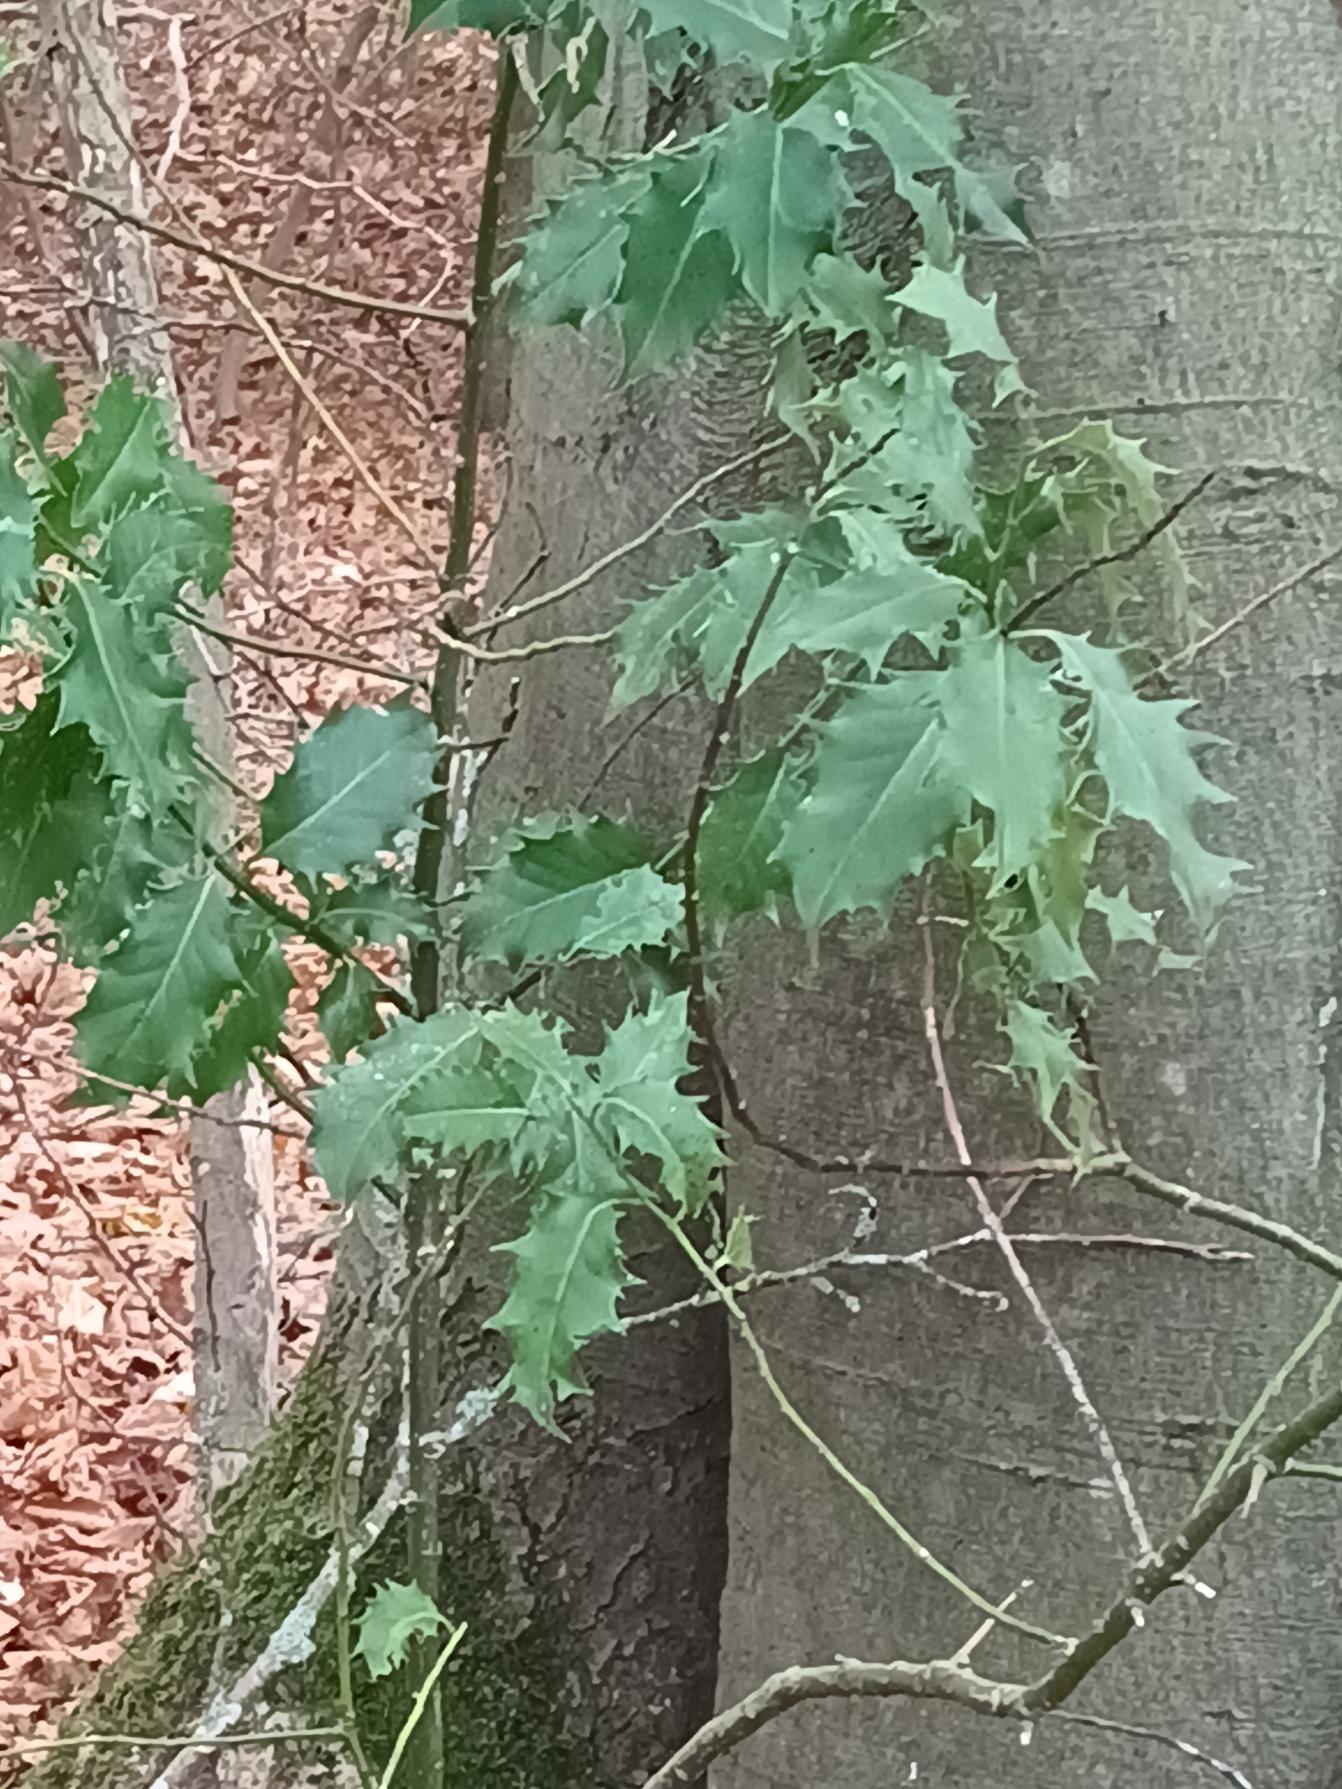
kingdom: Plantae
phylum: Tracheophyta
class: Magnoliopsida
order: Aquifoliales
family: Aquifoliaceae
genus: Ilex
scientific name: Ilex aquifolium
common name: Kristtorn
